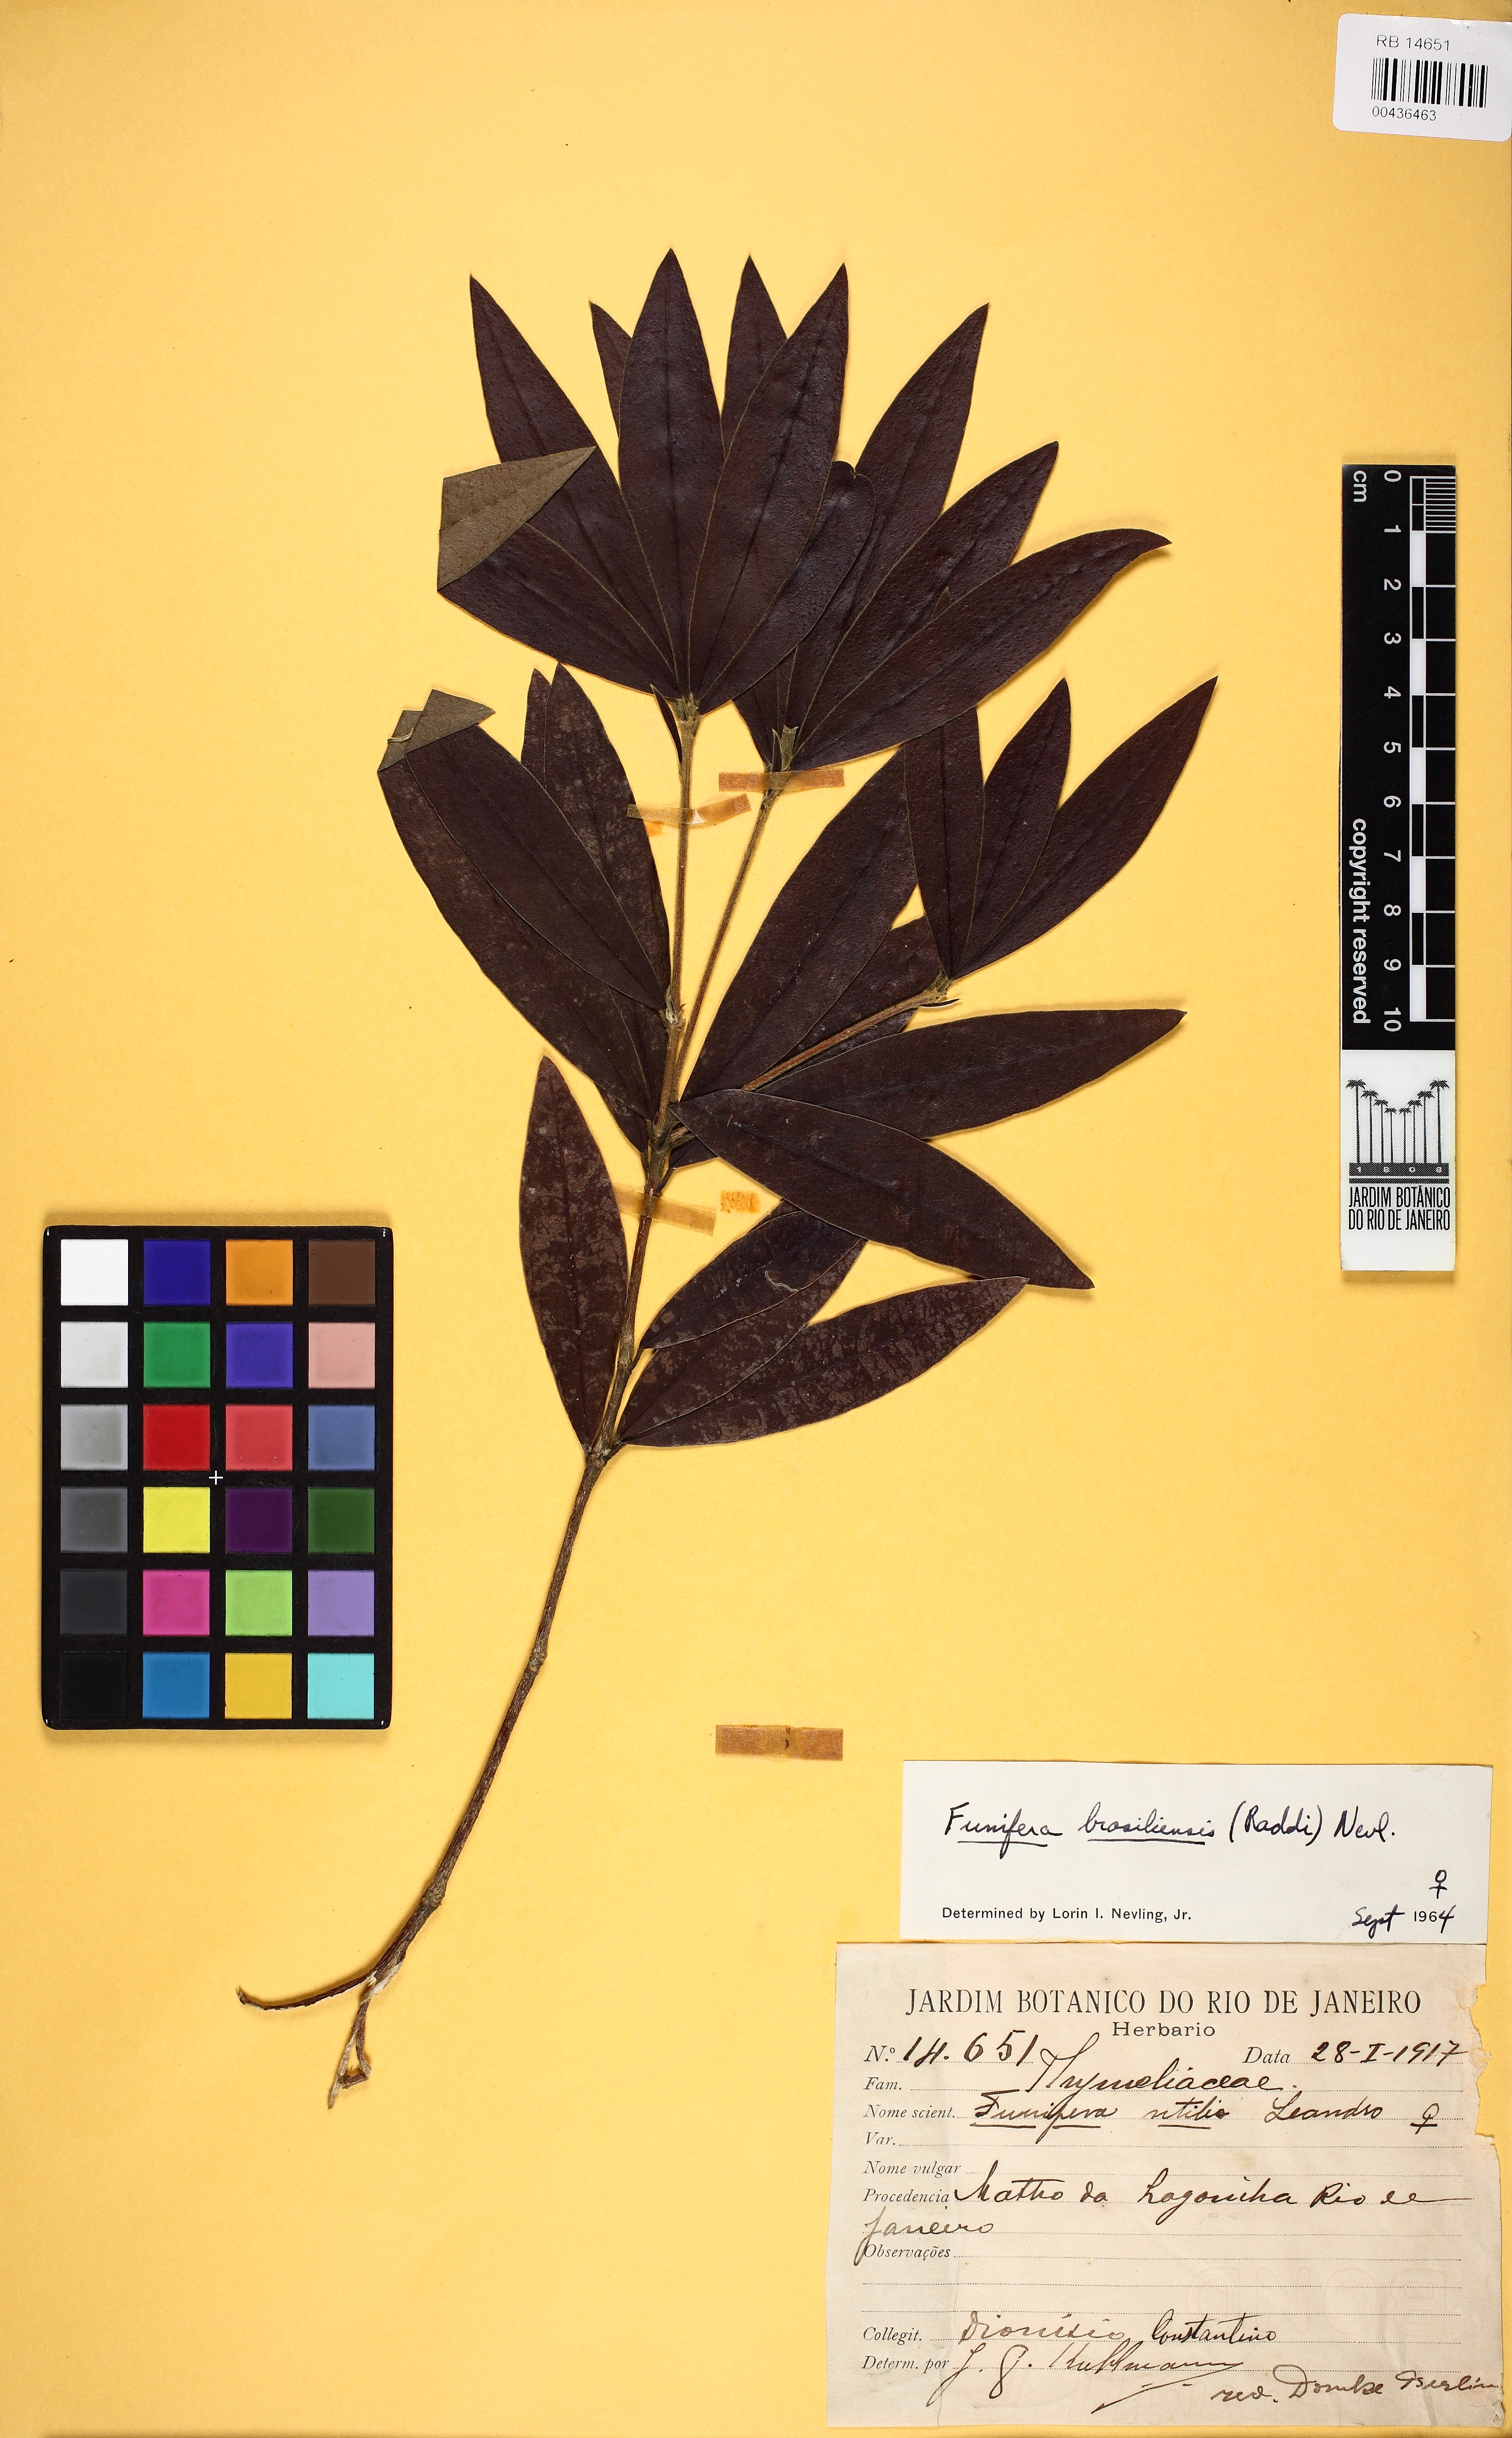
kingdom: Plantae
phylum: Tracheophyta
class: Magnoliopsida
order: Malvales
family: Thymelaeaceae
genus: Funifera
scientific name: Funifera brasiliensis
